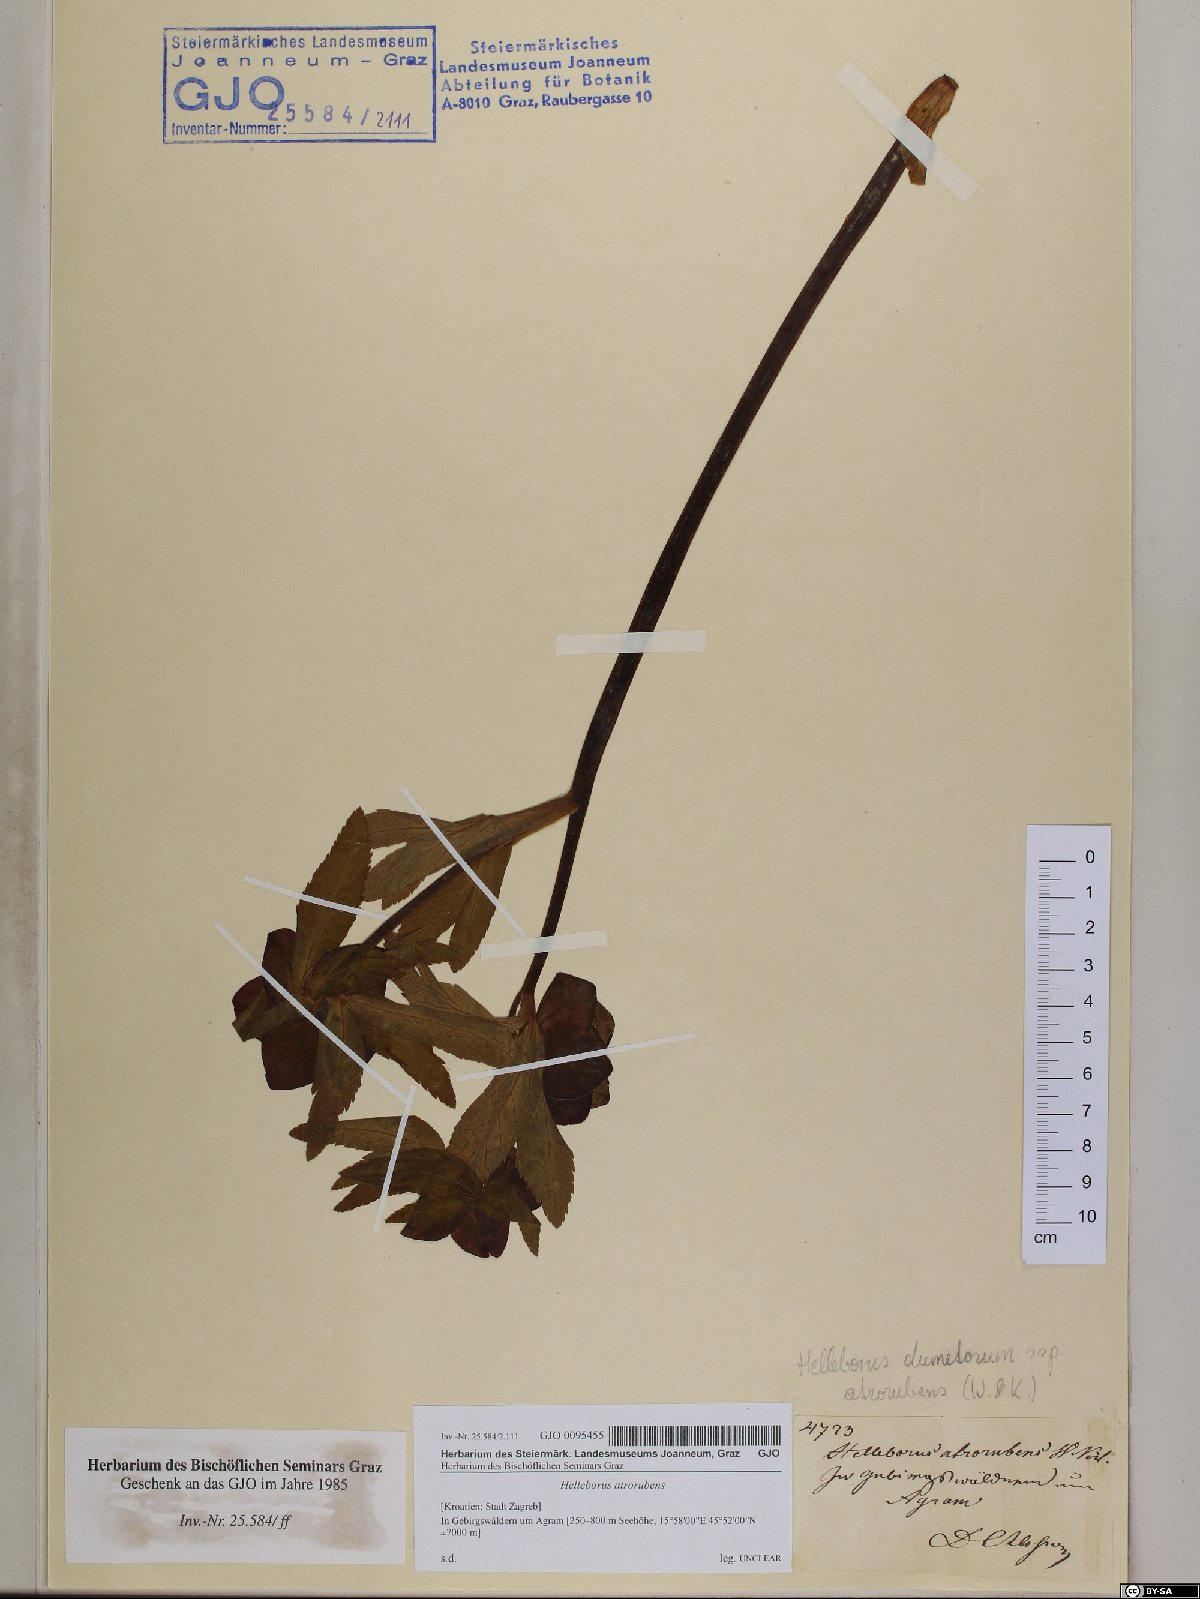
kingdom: Plantae
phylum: Tracheophyta
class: Magnoliopsida
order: Ranunculales
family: Ranunculaceae
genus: Helleborus
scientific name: Helleborus dumetorum
